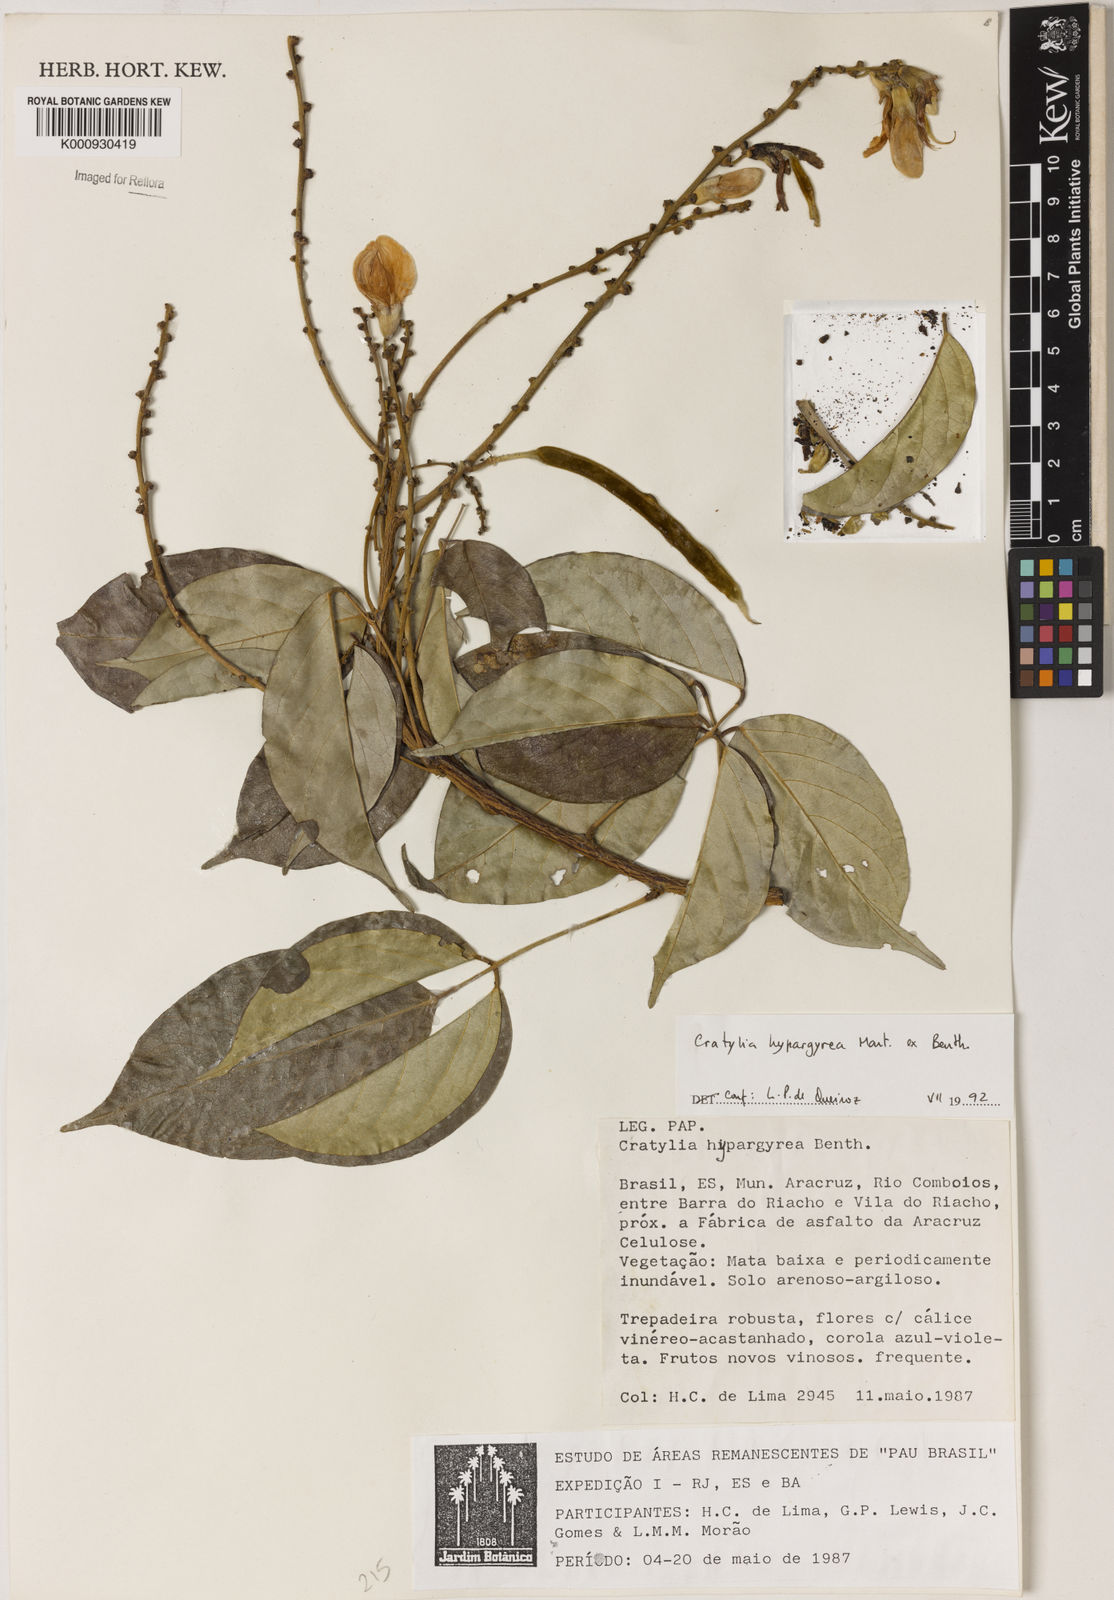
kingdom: Plantae
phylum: Tracheophyta
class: Magnoliopsida
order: Fabales
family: Fabaceae
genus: Cratylia
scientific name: Cratylia
